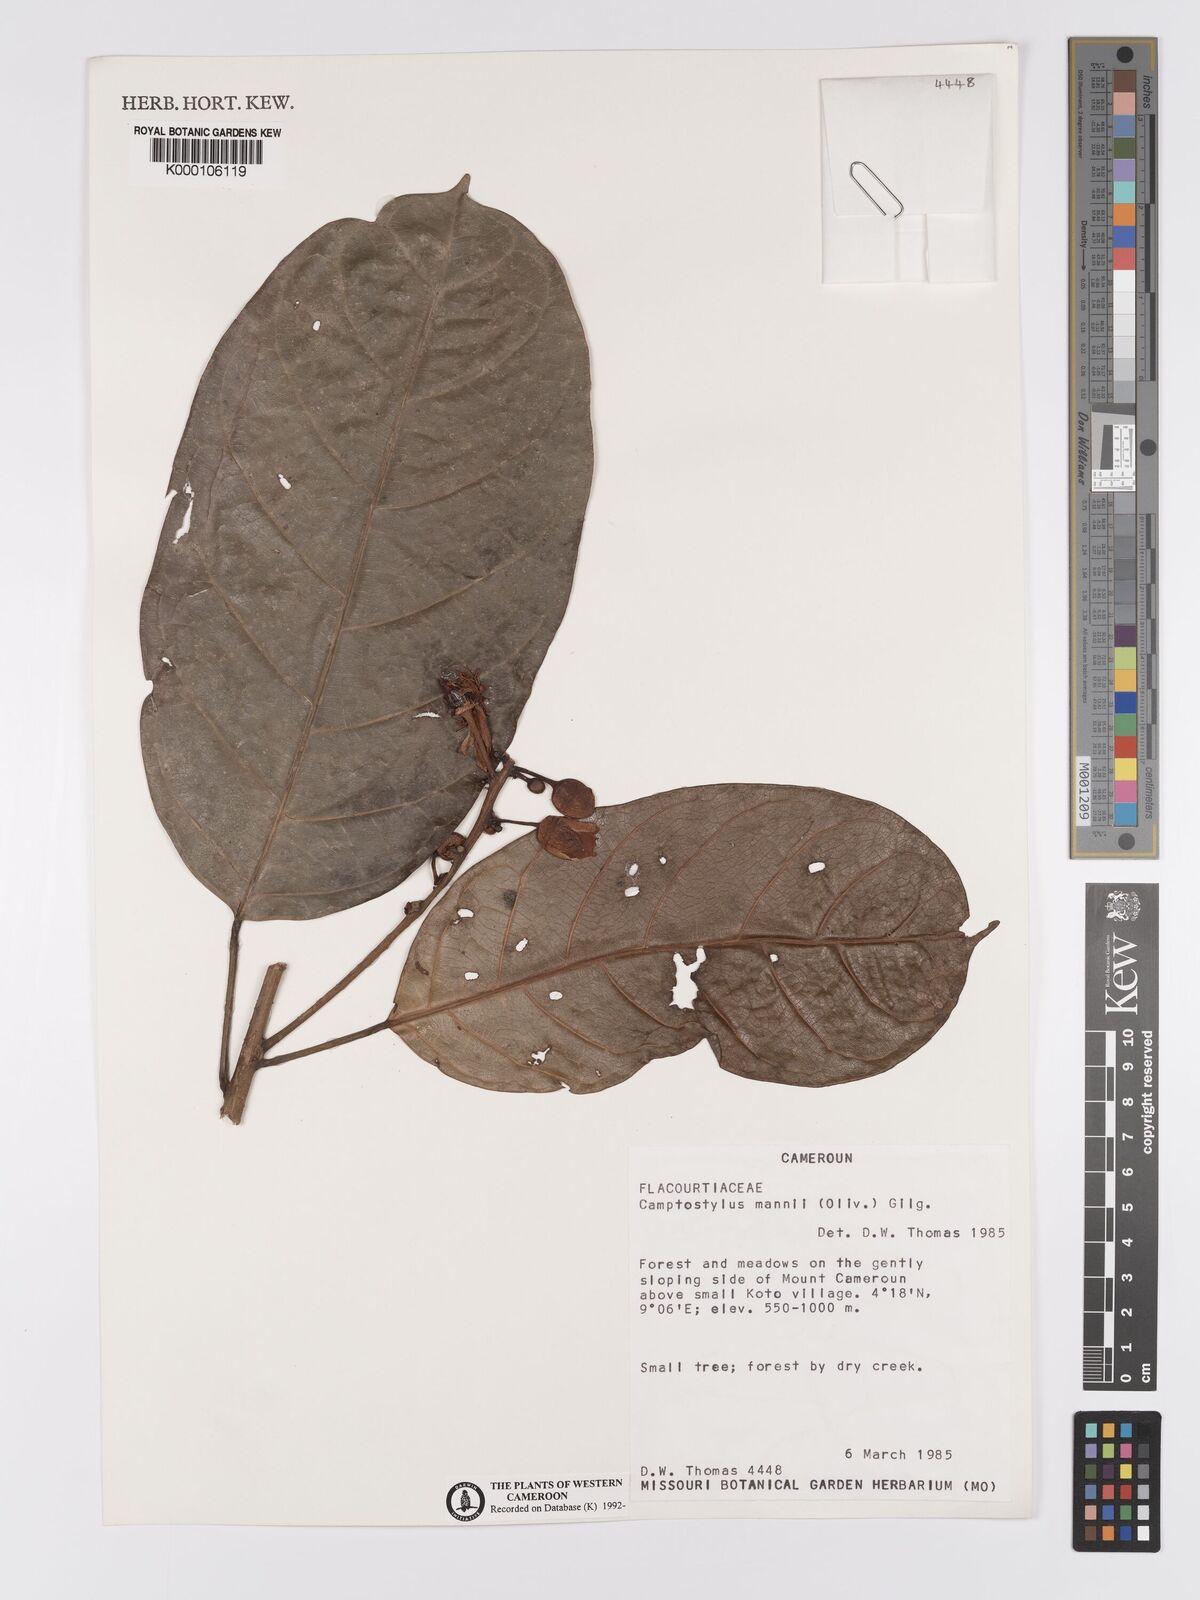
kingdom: Plantae
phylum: Tracheophyta
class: Magnoliopsida
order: Malpighiales
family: Achariaceae
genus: Camptostylus
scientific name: Camptostylus mannii
